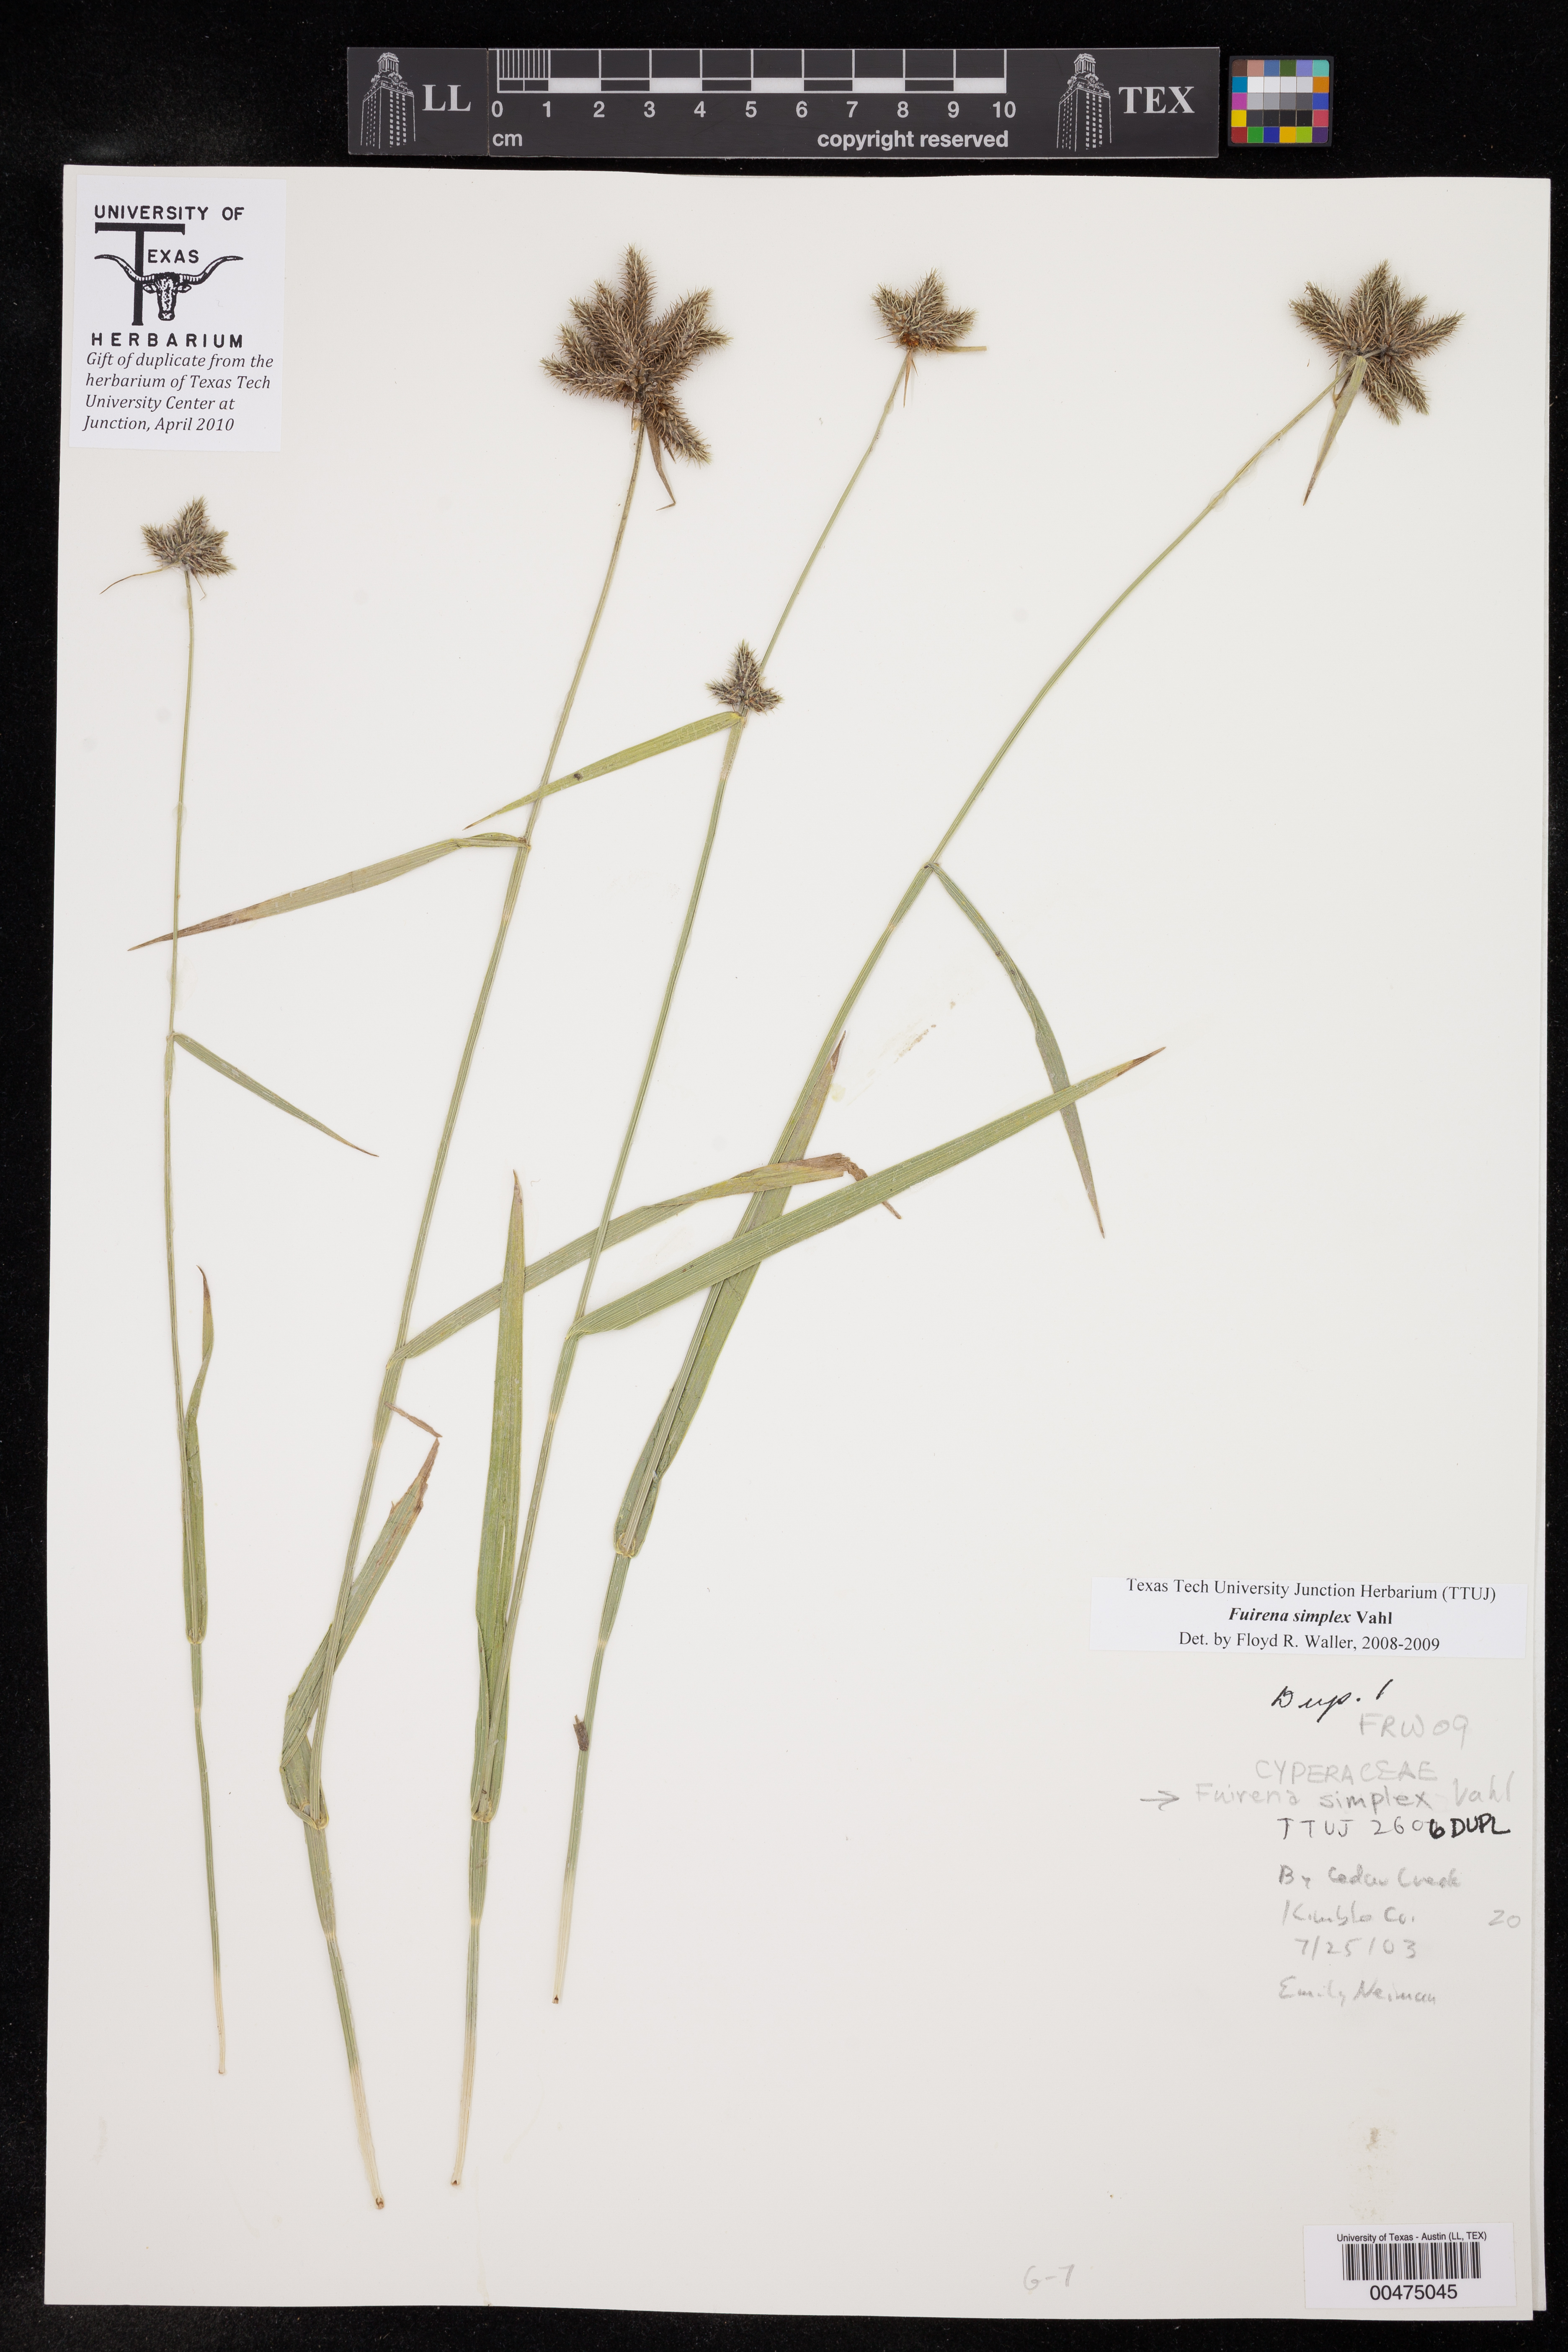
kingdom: Plantae
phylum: Tracheophyta
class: Liliopsida
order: Poales
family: Cyperaceae
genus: Fuirena
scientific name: Fuirena simplex
